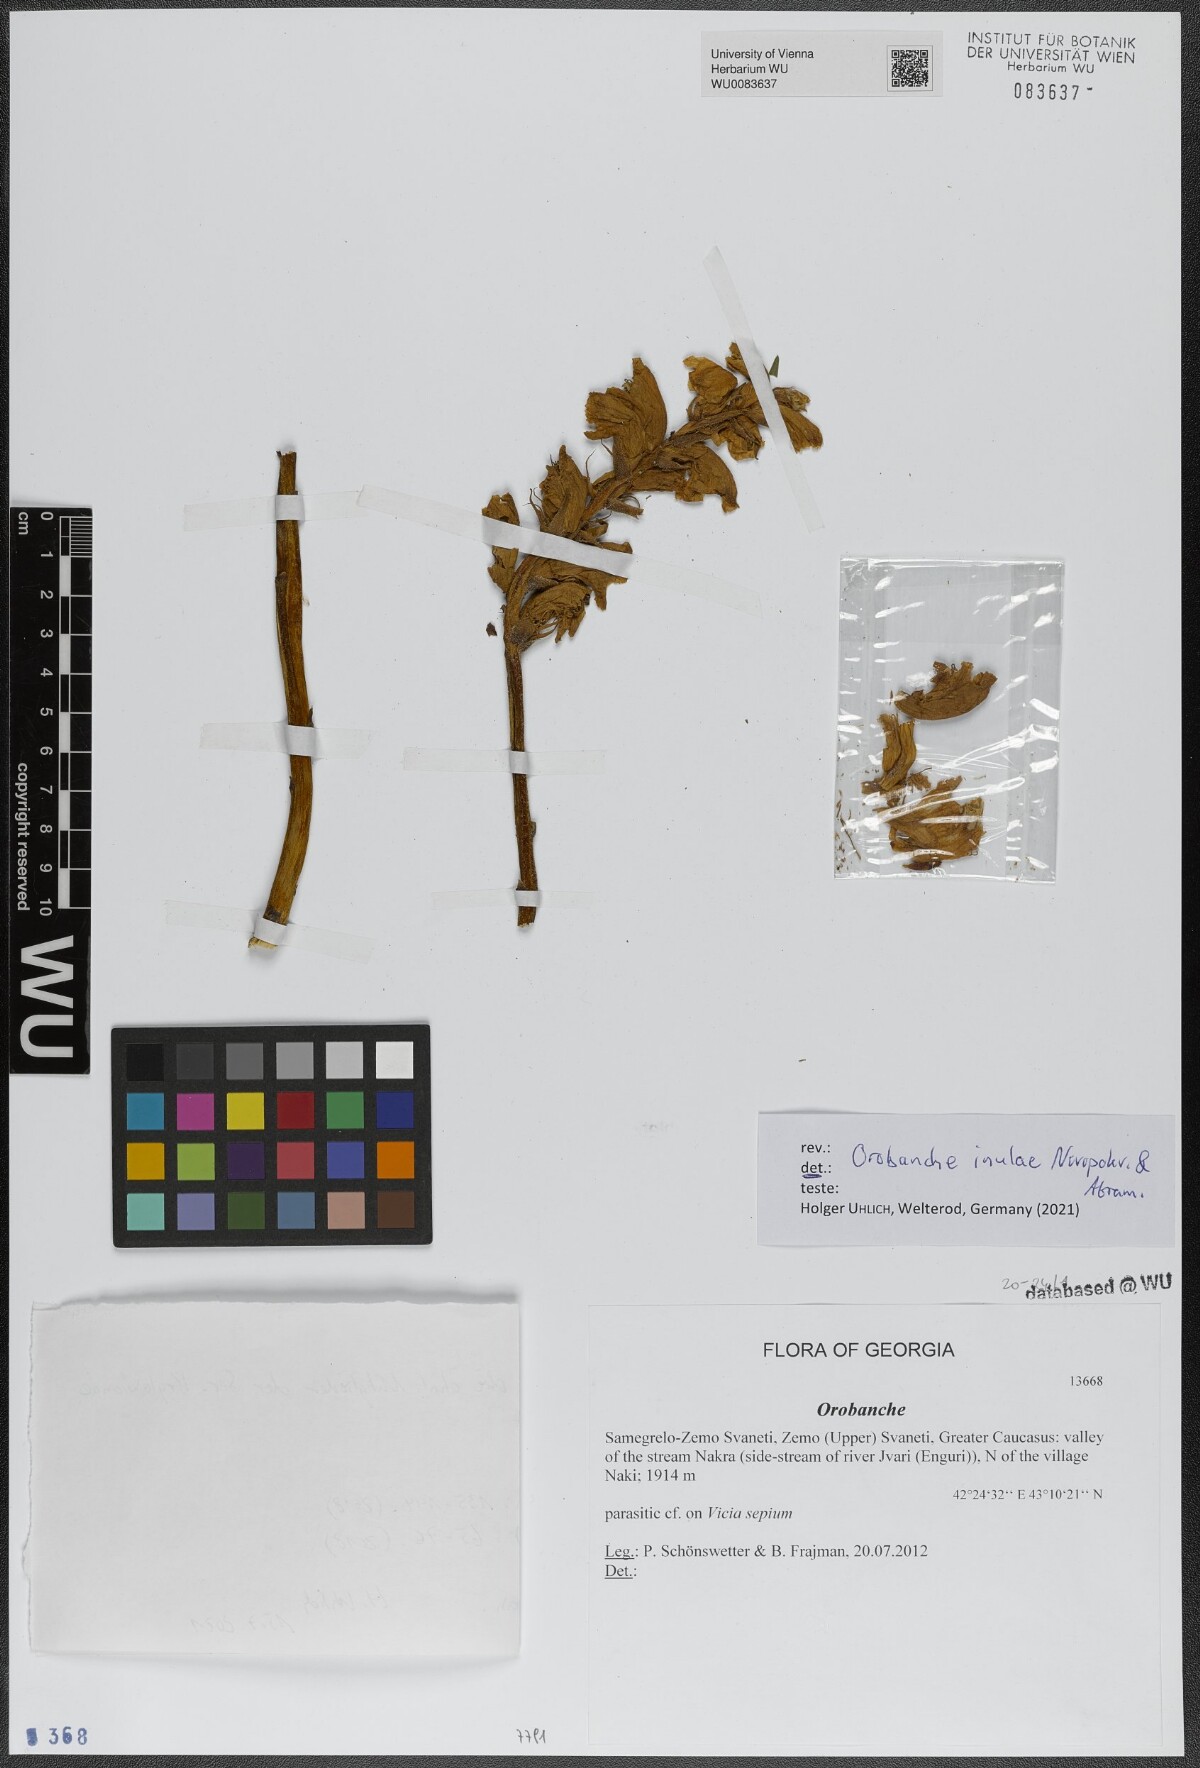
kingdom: Plantae
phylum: Tracheophyta
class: Magnoliopsida
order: Lamiales
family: Orobanchaceae
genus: Orobanche
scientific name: Orobanche inulae
